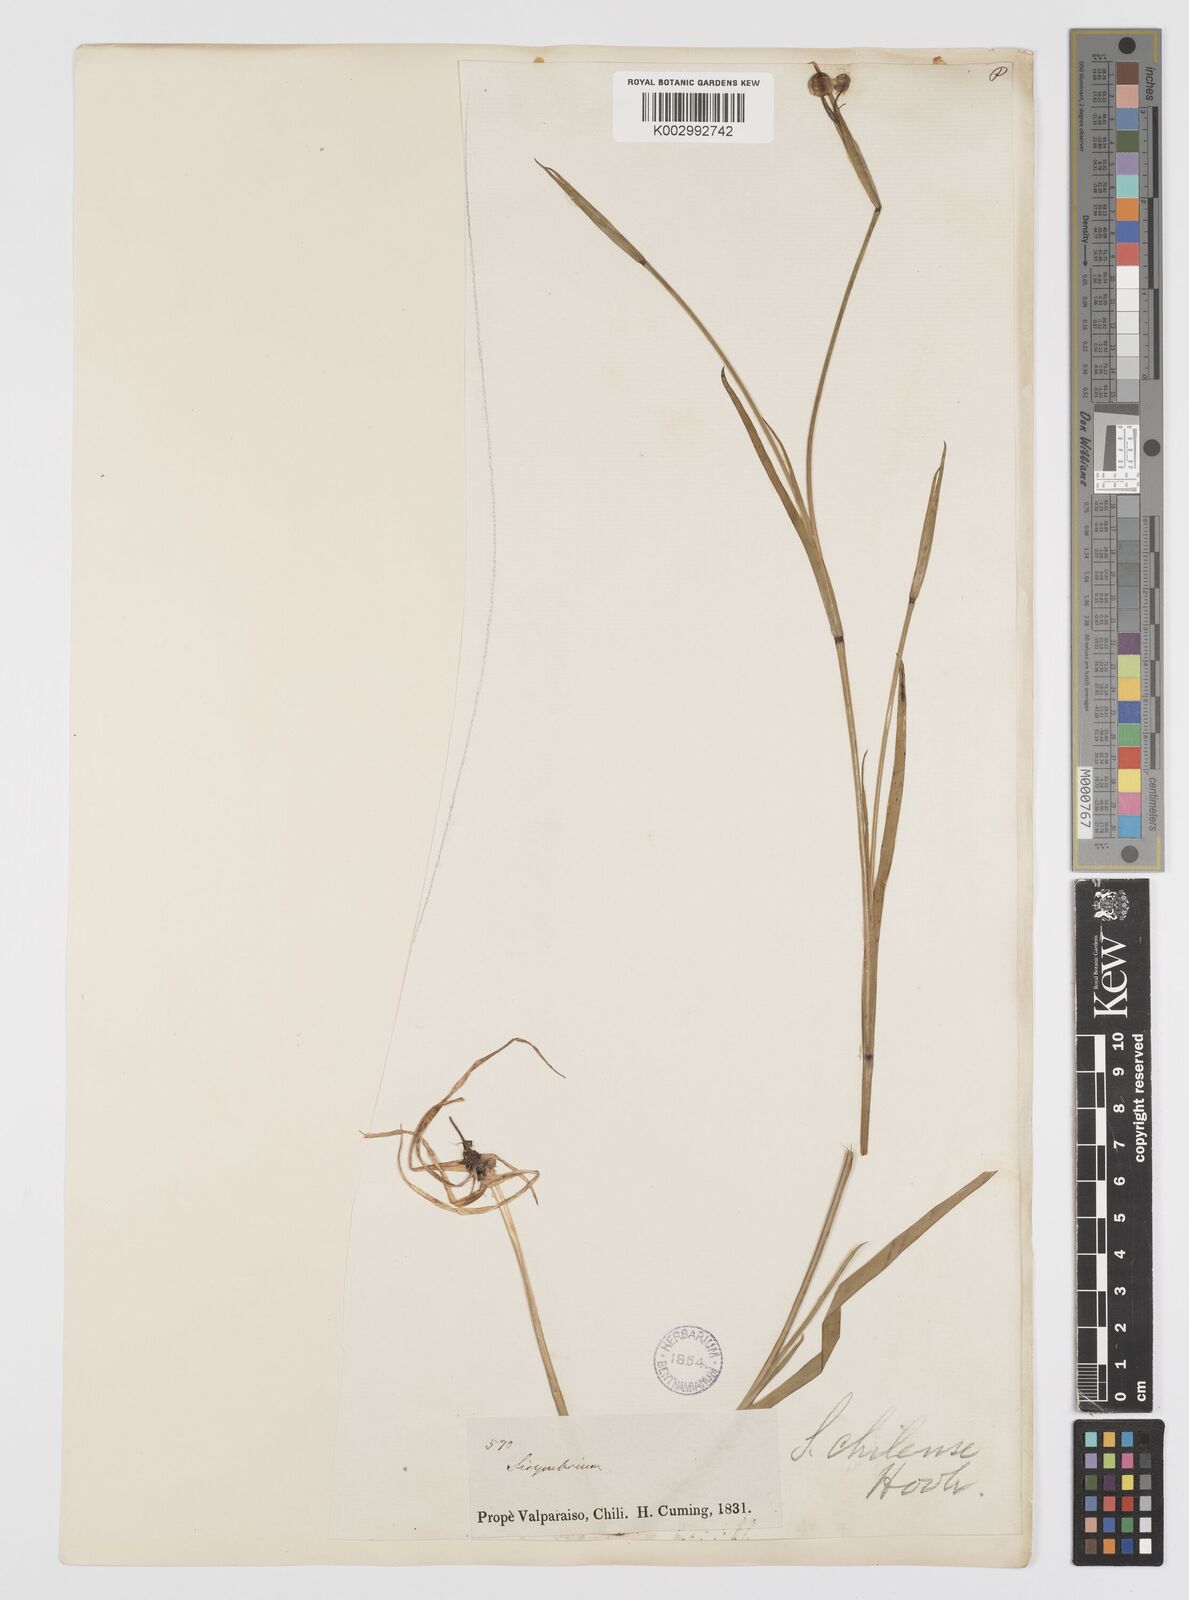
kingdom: Plantae
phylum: Tracheophyta
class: Liliopsida
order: Asparagales
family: Iridaceae
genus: Sisyrinchium
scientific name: Sisyrinchium chilense
